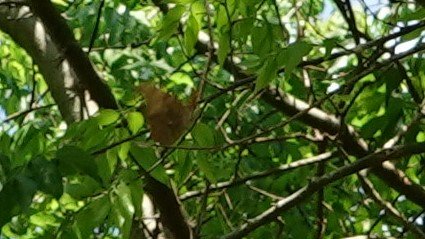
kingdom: Animalia
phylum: Arthropoda
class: Insecta
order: Lepidoptera
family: Nymphalidae
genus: Polygonia
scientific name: Polygonia interrogationis
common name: Question Mark
